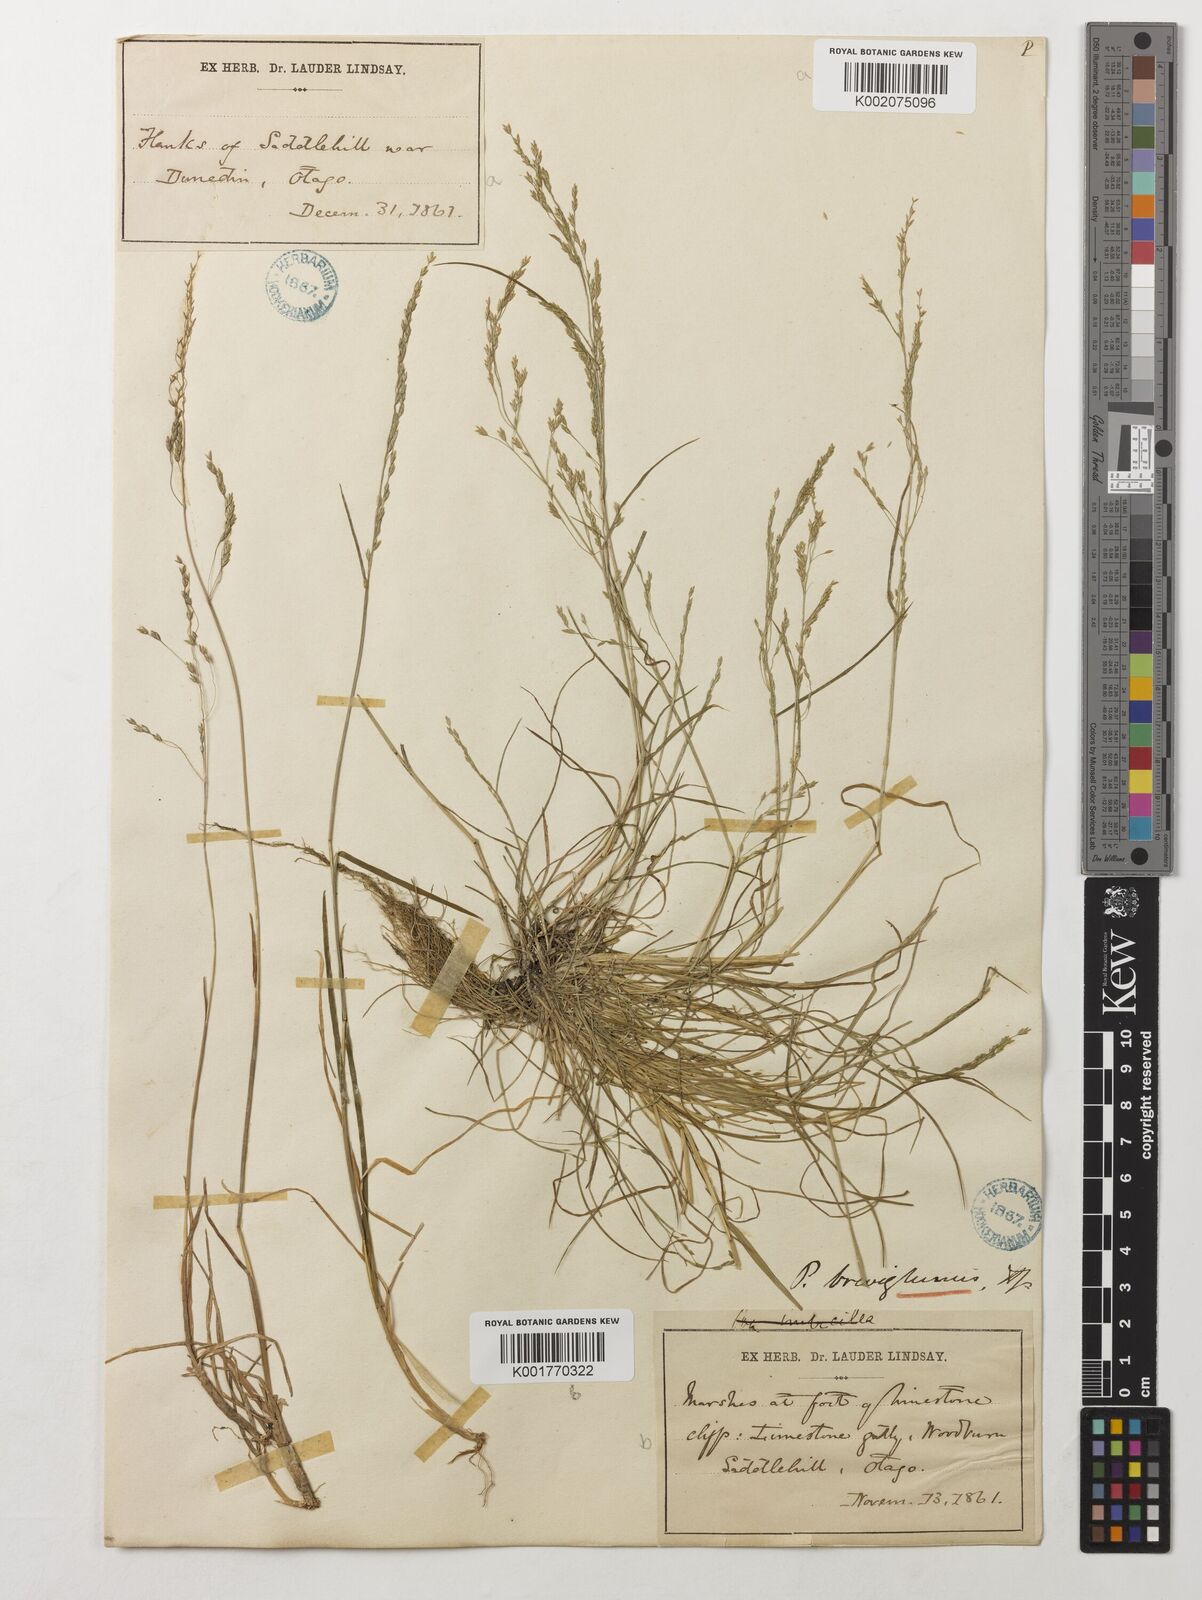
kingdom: Plantae
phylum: Tracheophyta
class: Liliopsida
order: Poales
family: Poaceae
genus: Poa
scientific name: Poa
